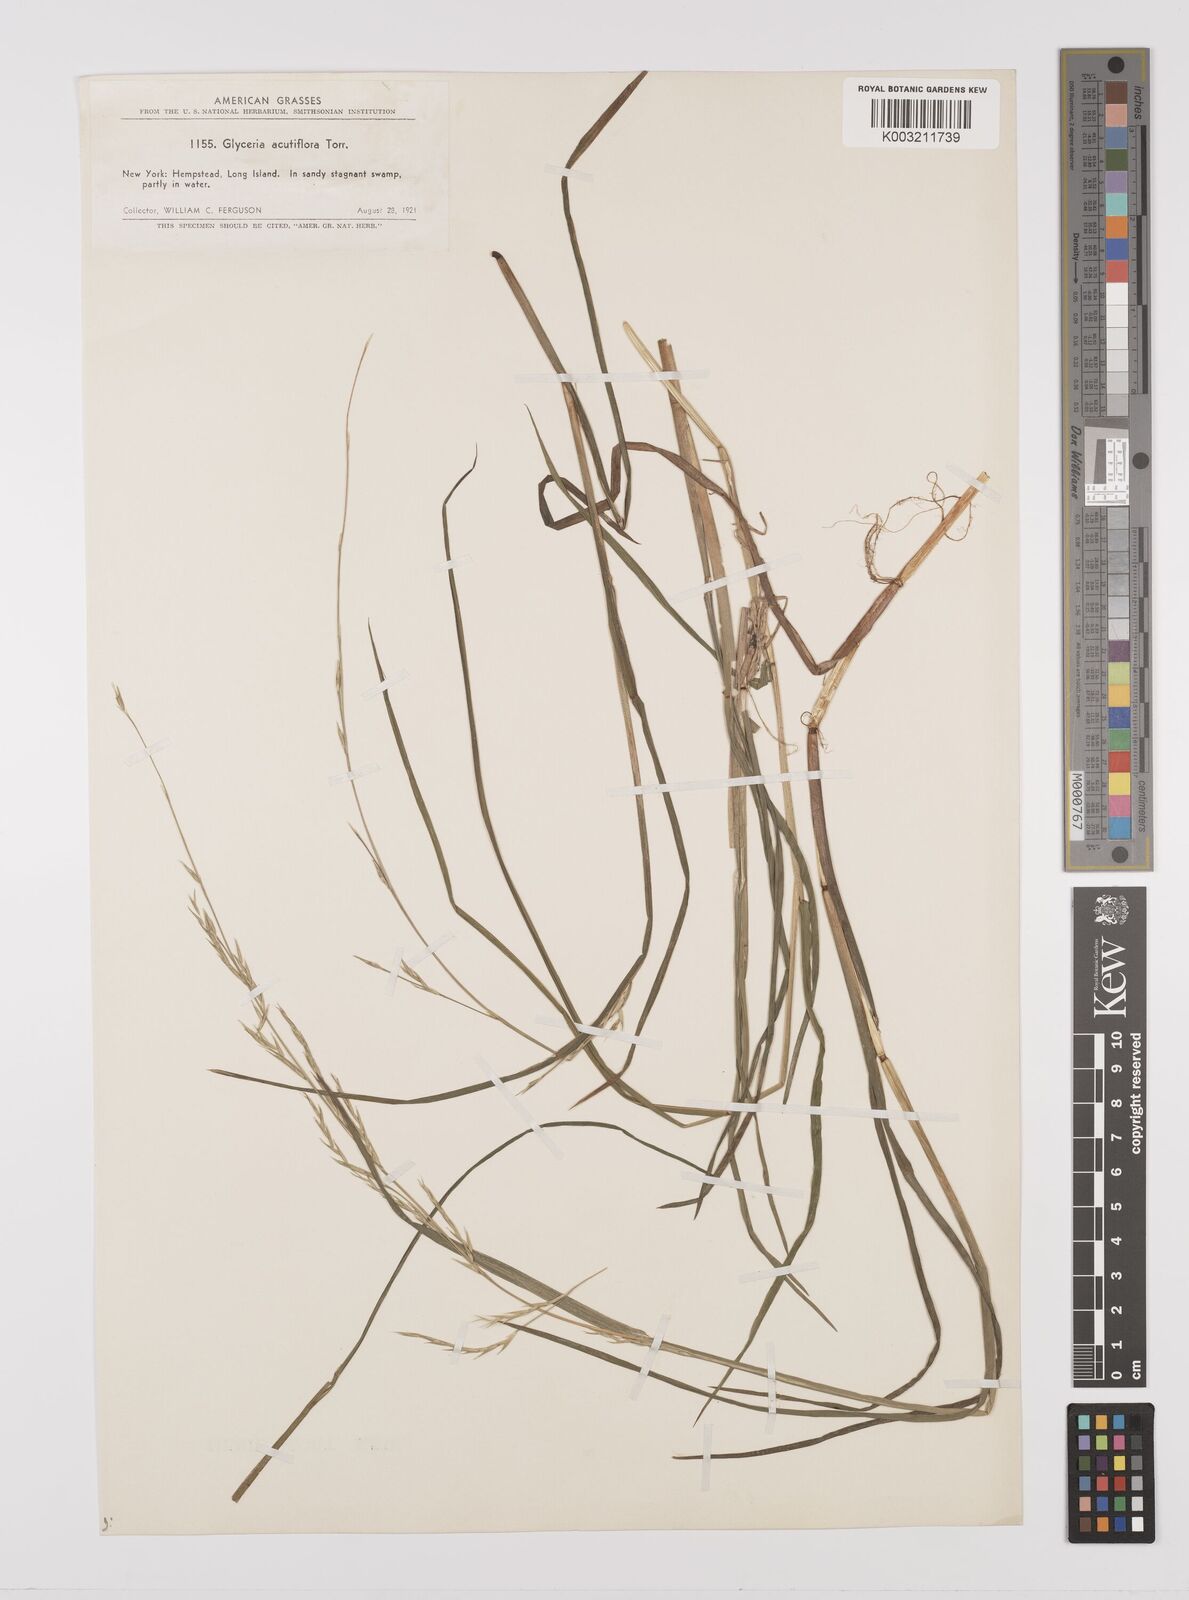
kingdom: Plantae
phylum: Tracheophyta
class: Liliopsida
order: Poales
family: Poaceae
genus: Glyceria
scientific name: Glyceria acutiflora
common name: Sharp-glumed manna-grass
